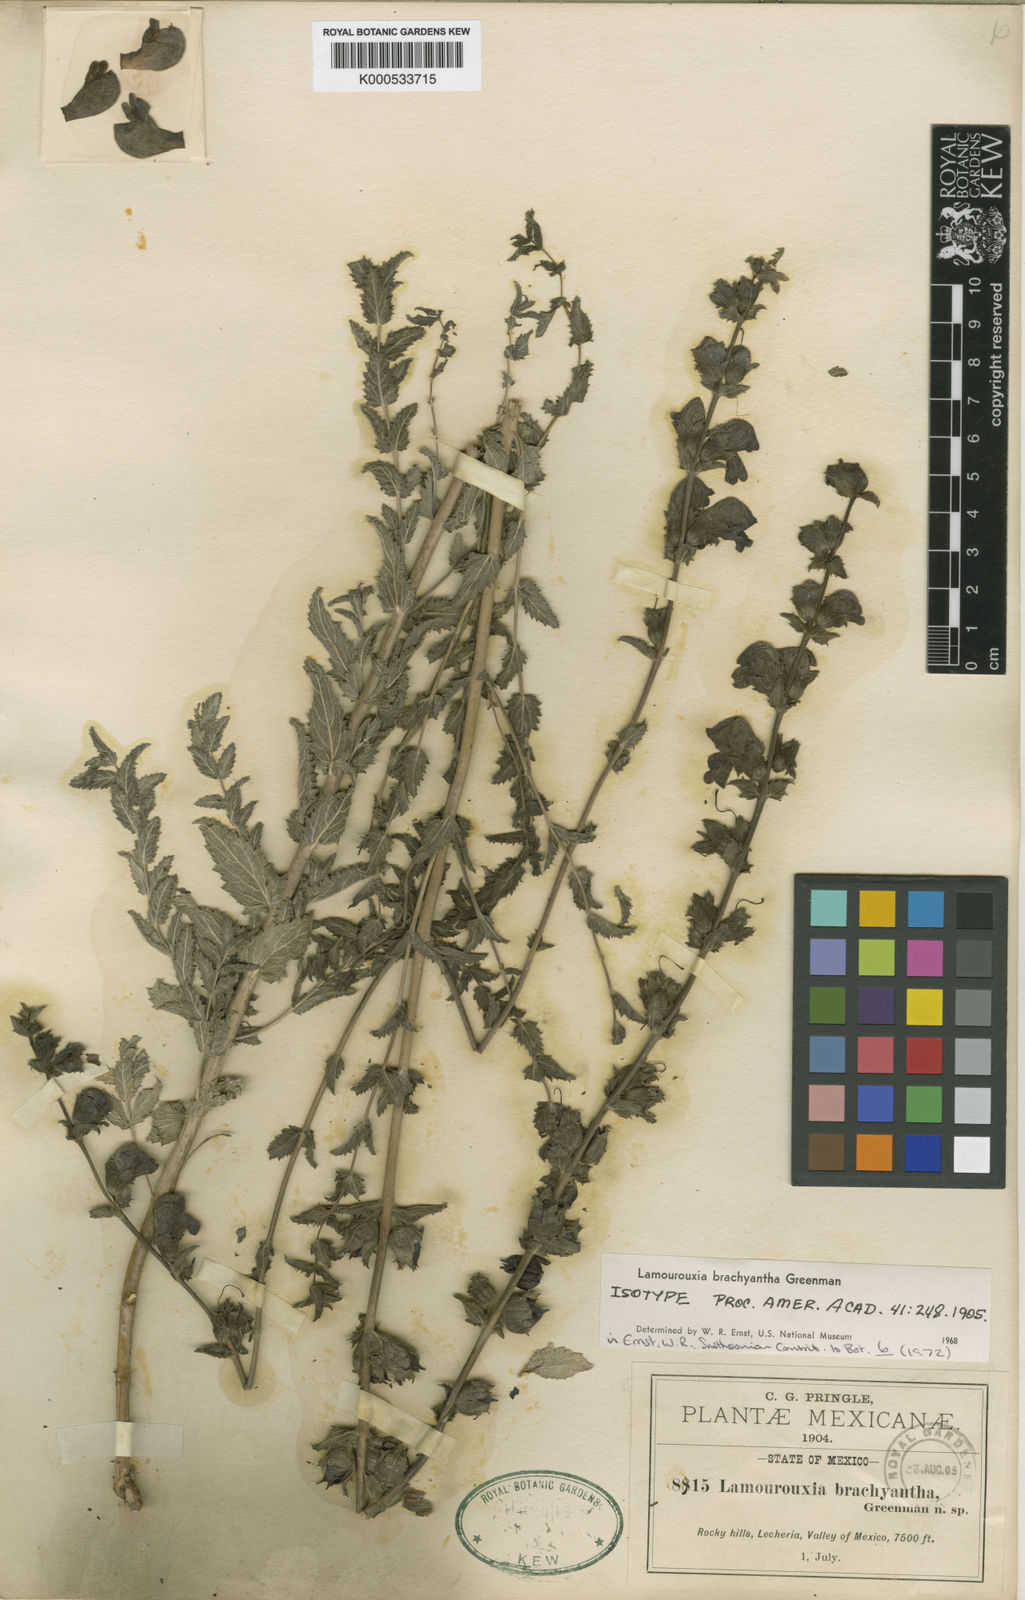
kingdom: Plantae
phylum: Tracheophyta
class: Magnoliopsida
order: Lamiales
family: Orobanchaceae
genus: Lamourouxia
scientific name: Lamourouxia brachyantha
